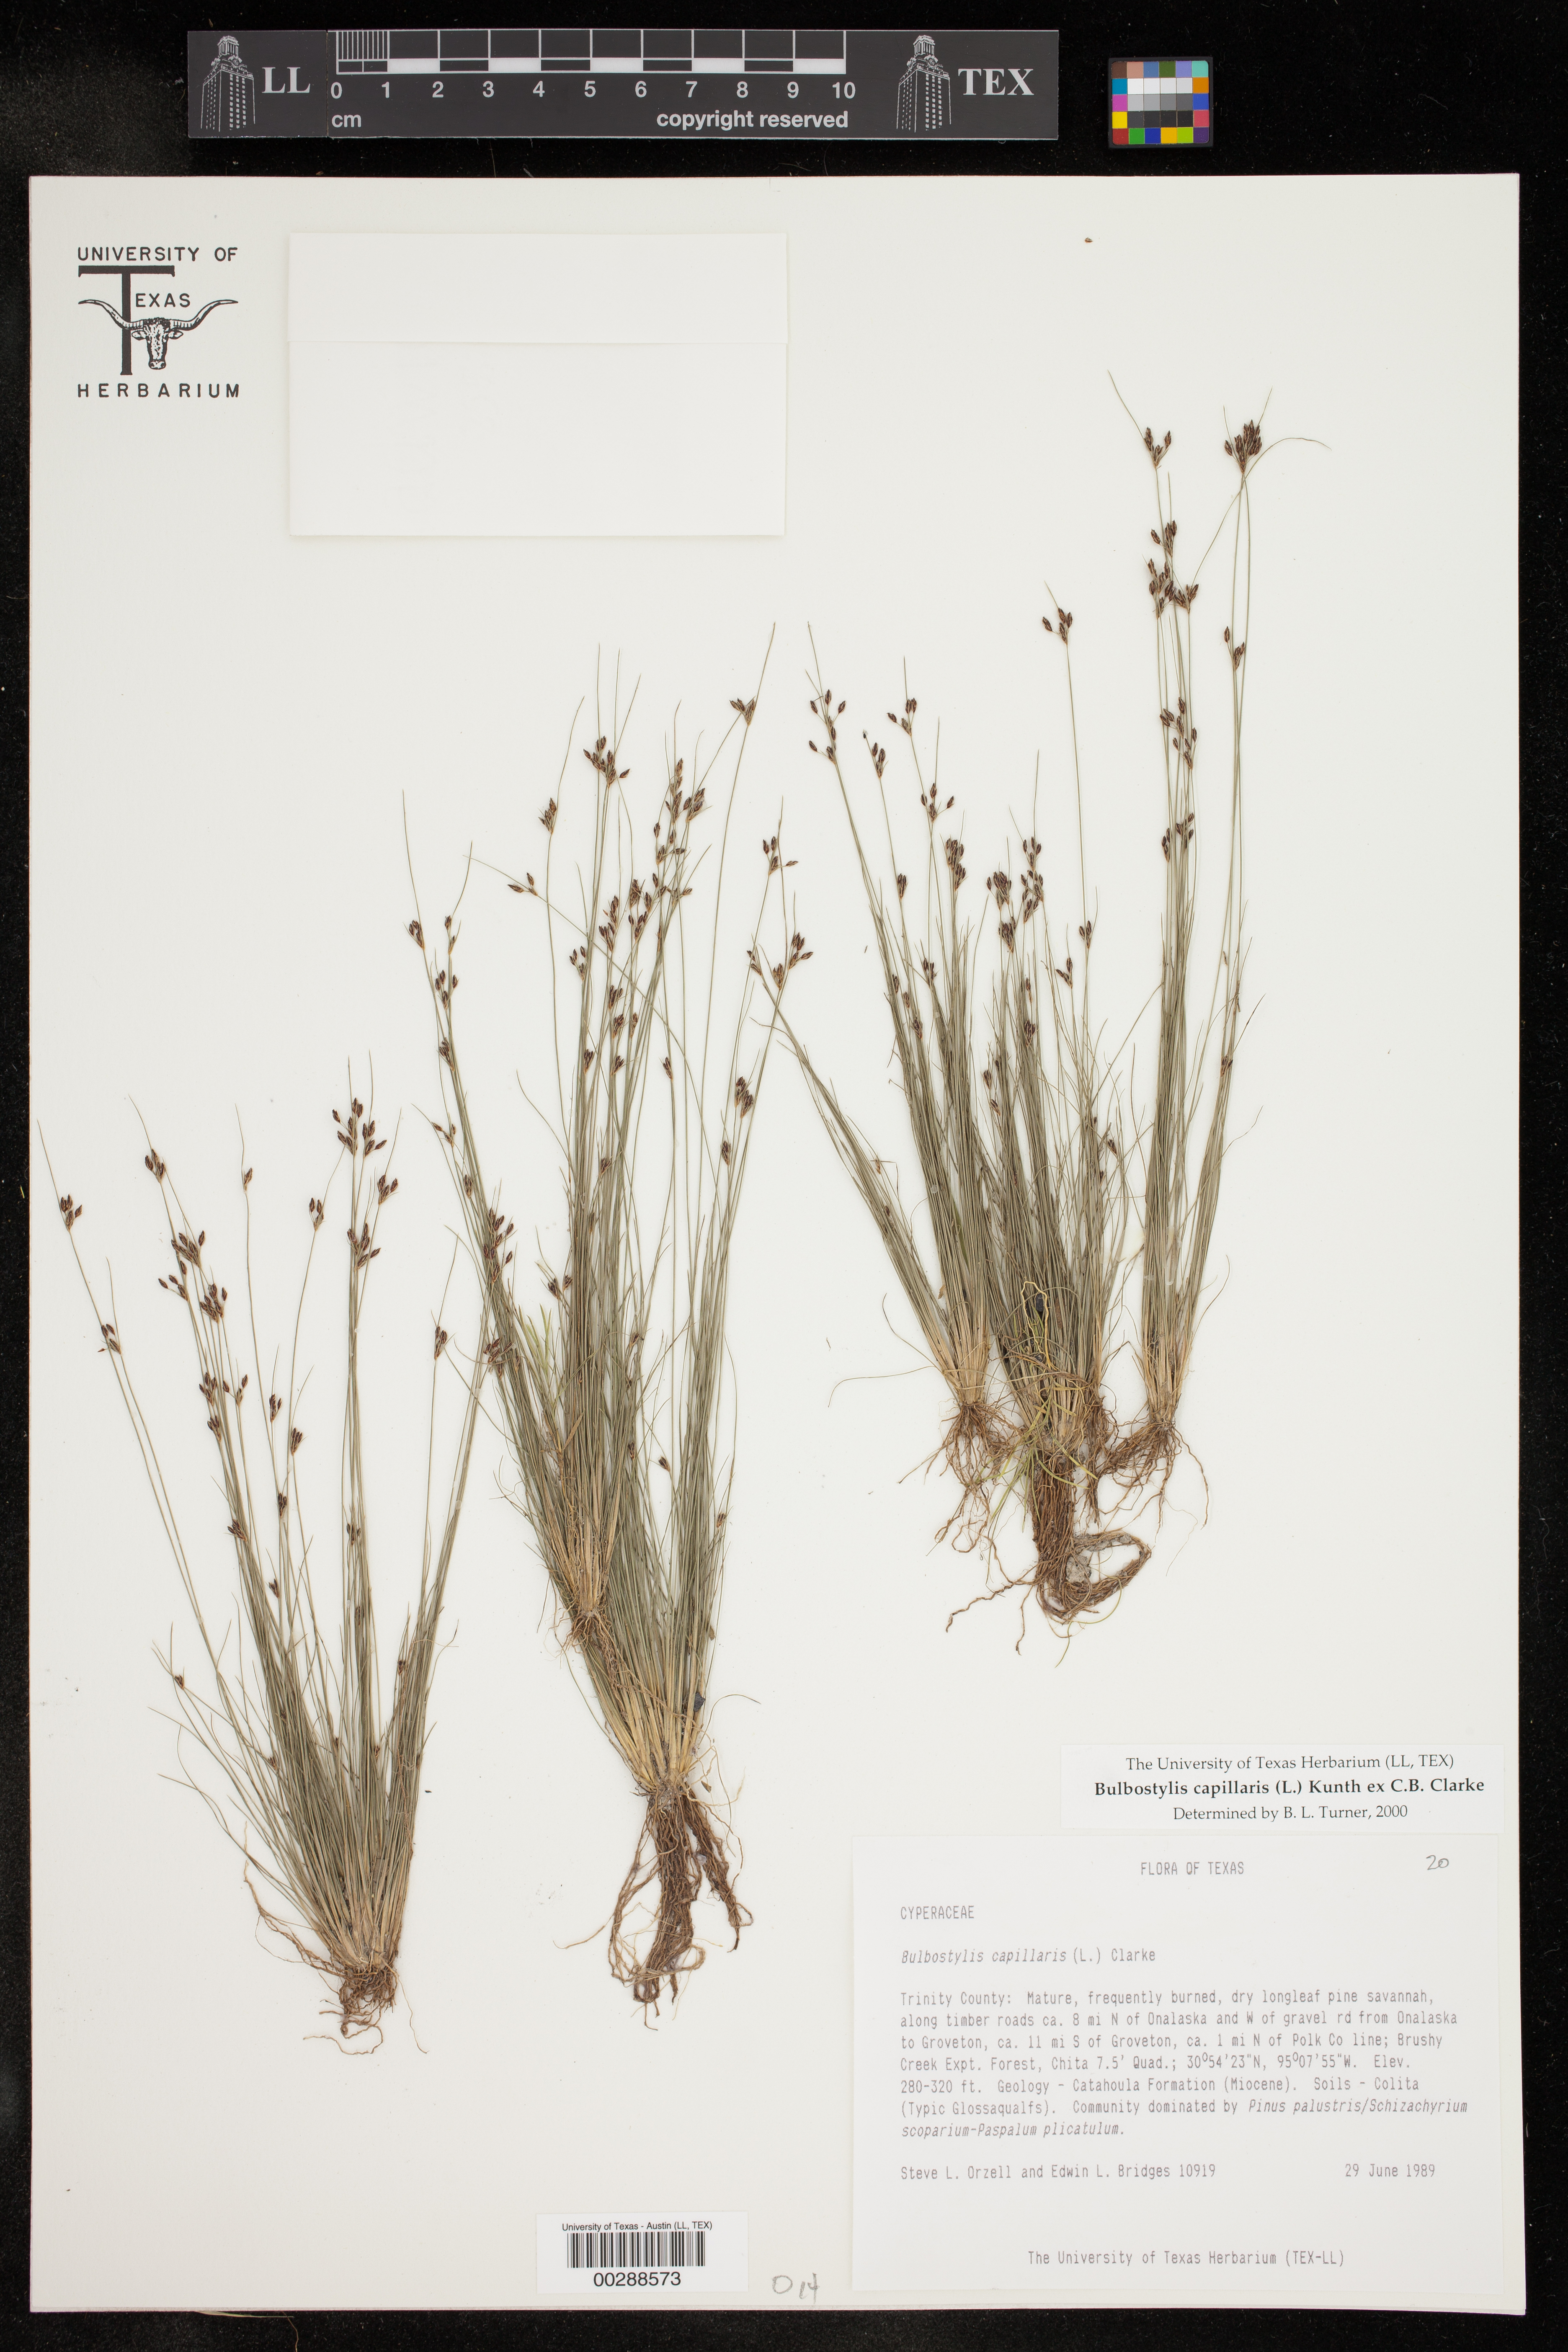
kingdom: Plantae
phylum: Tracheophyta
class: Liliopsida
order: Poales
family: Cyperaceae
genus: Bulbostylis
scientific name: Bulbostylis capillaris
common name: Densetuft hairsedge
